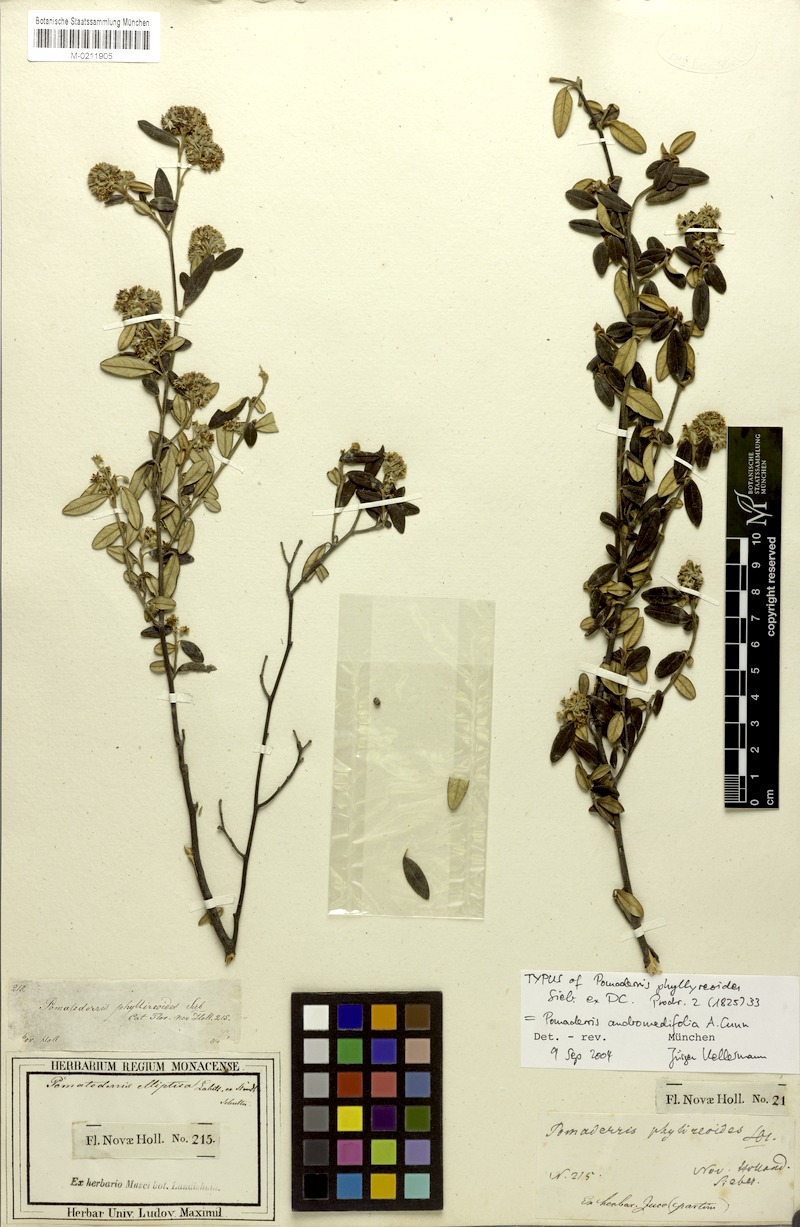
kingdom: Plantae
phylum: Tracheophyta
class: Magnoliopsida
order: Rosales
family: Rhamnaceae
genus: Pomaderris
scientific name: Pomaderris andromedifolia
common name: Yellow pomaderris
